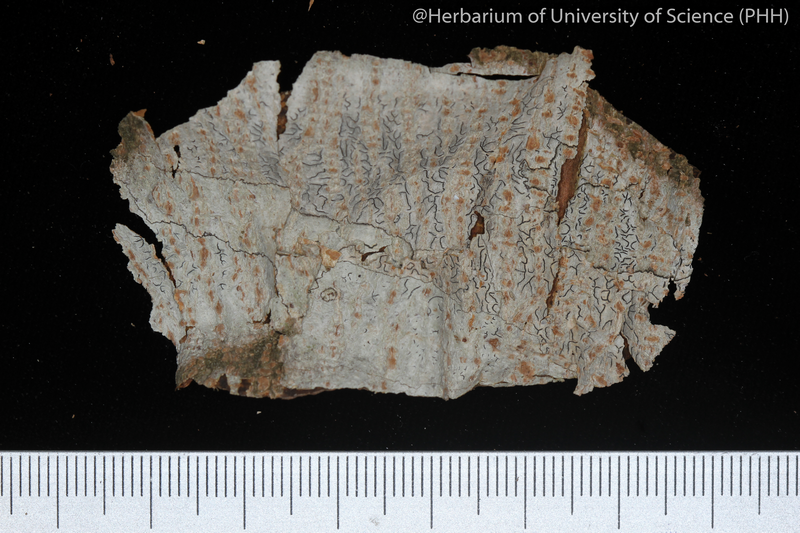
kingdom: Fungi
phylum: Ascomycota
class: Lecanoromycetes
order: Ostropales
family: Graphidaceae
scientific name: Graphidaceae
